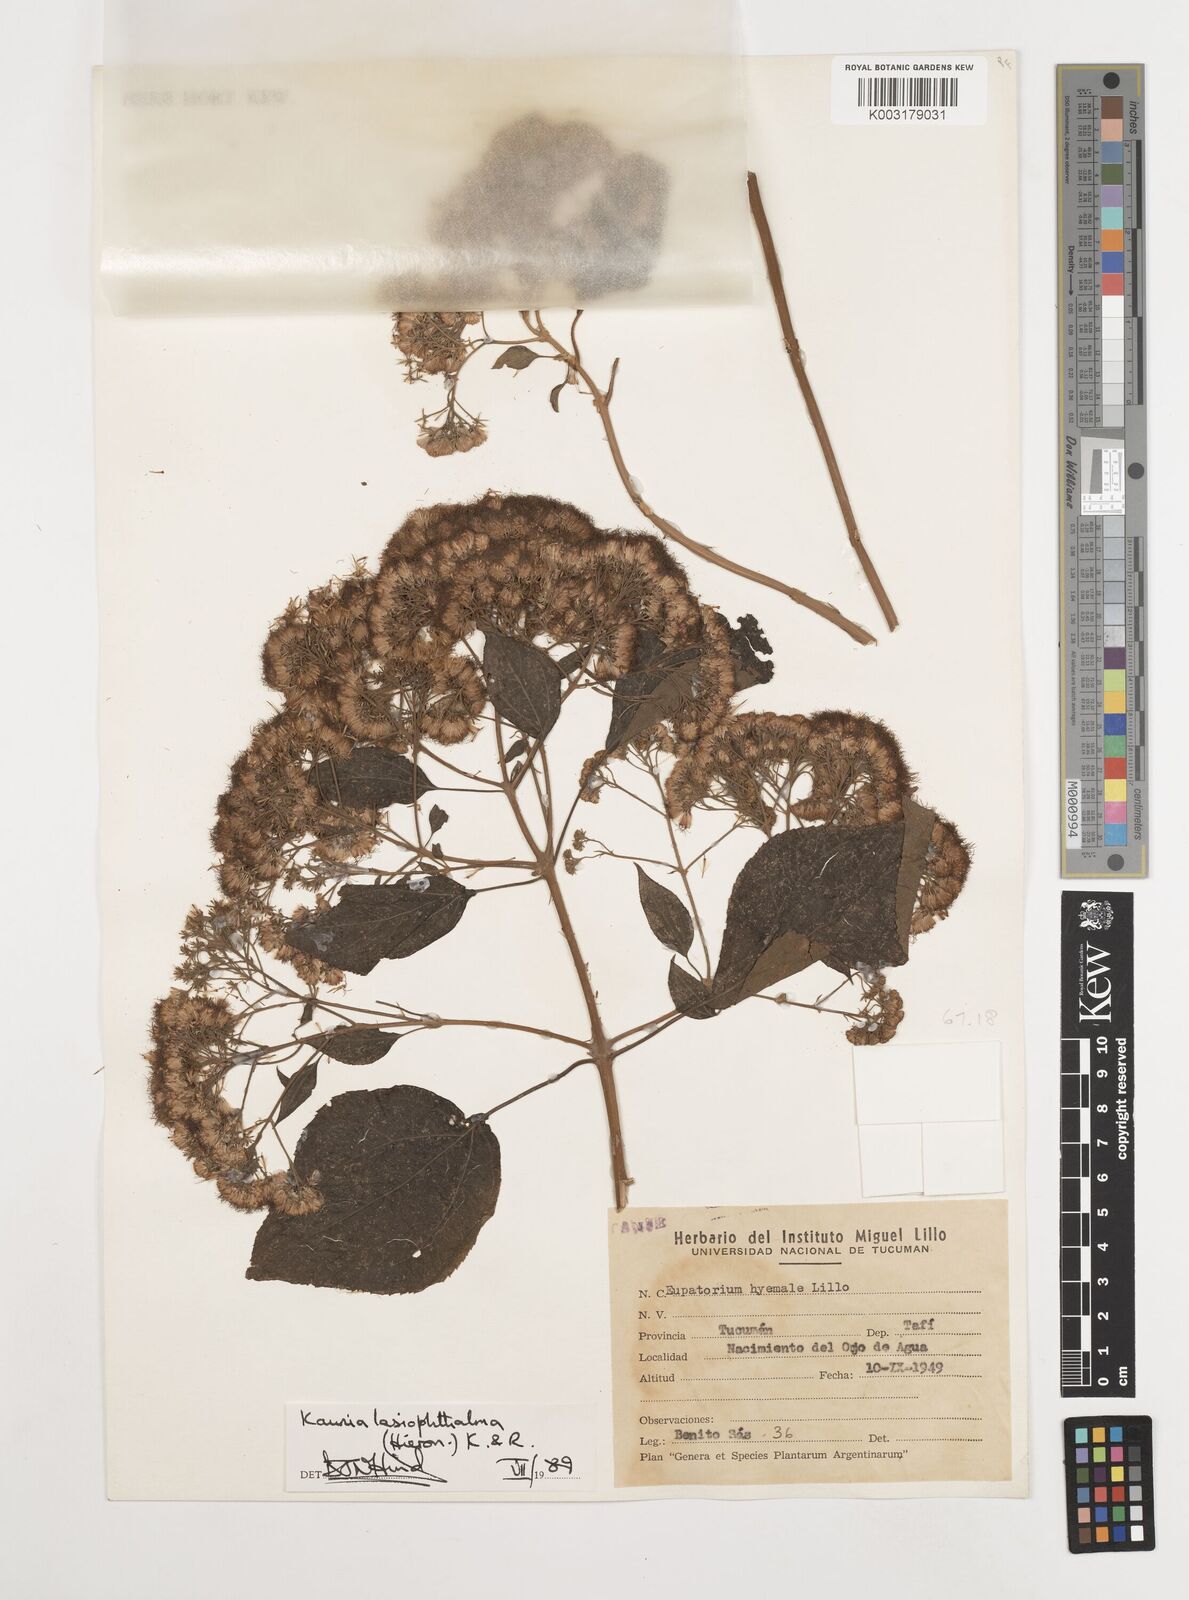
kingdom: Plantae
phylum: Tracheophyta
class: Magnoliopsida
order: Asterales
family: Asteraceae
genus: Kaunia
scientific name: Kaunia lasiophthalma
